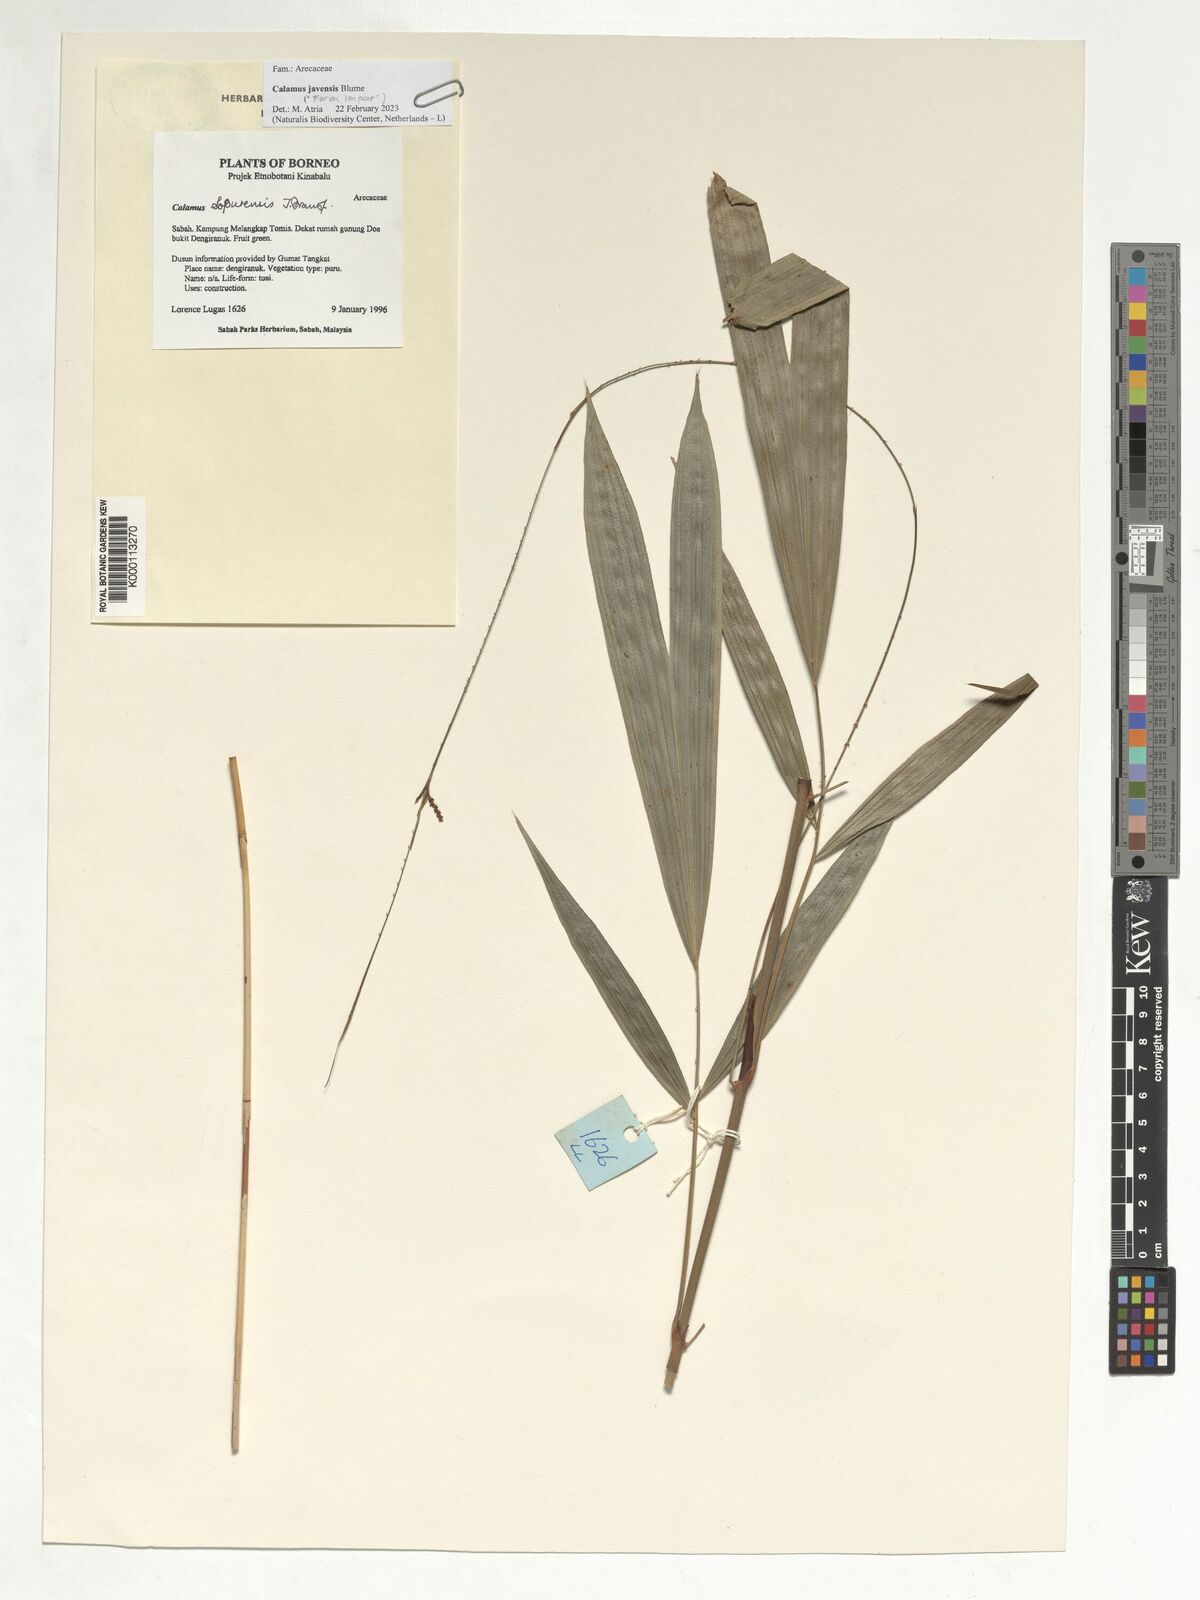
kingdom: Plantae
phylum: Tracheophyta
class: Liliopsida
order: Arecales
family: Arecaceae
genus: Calamus
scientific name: Calamus javensis
